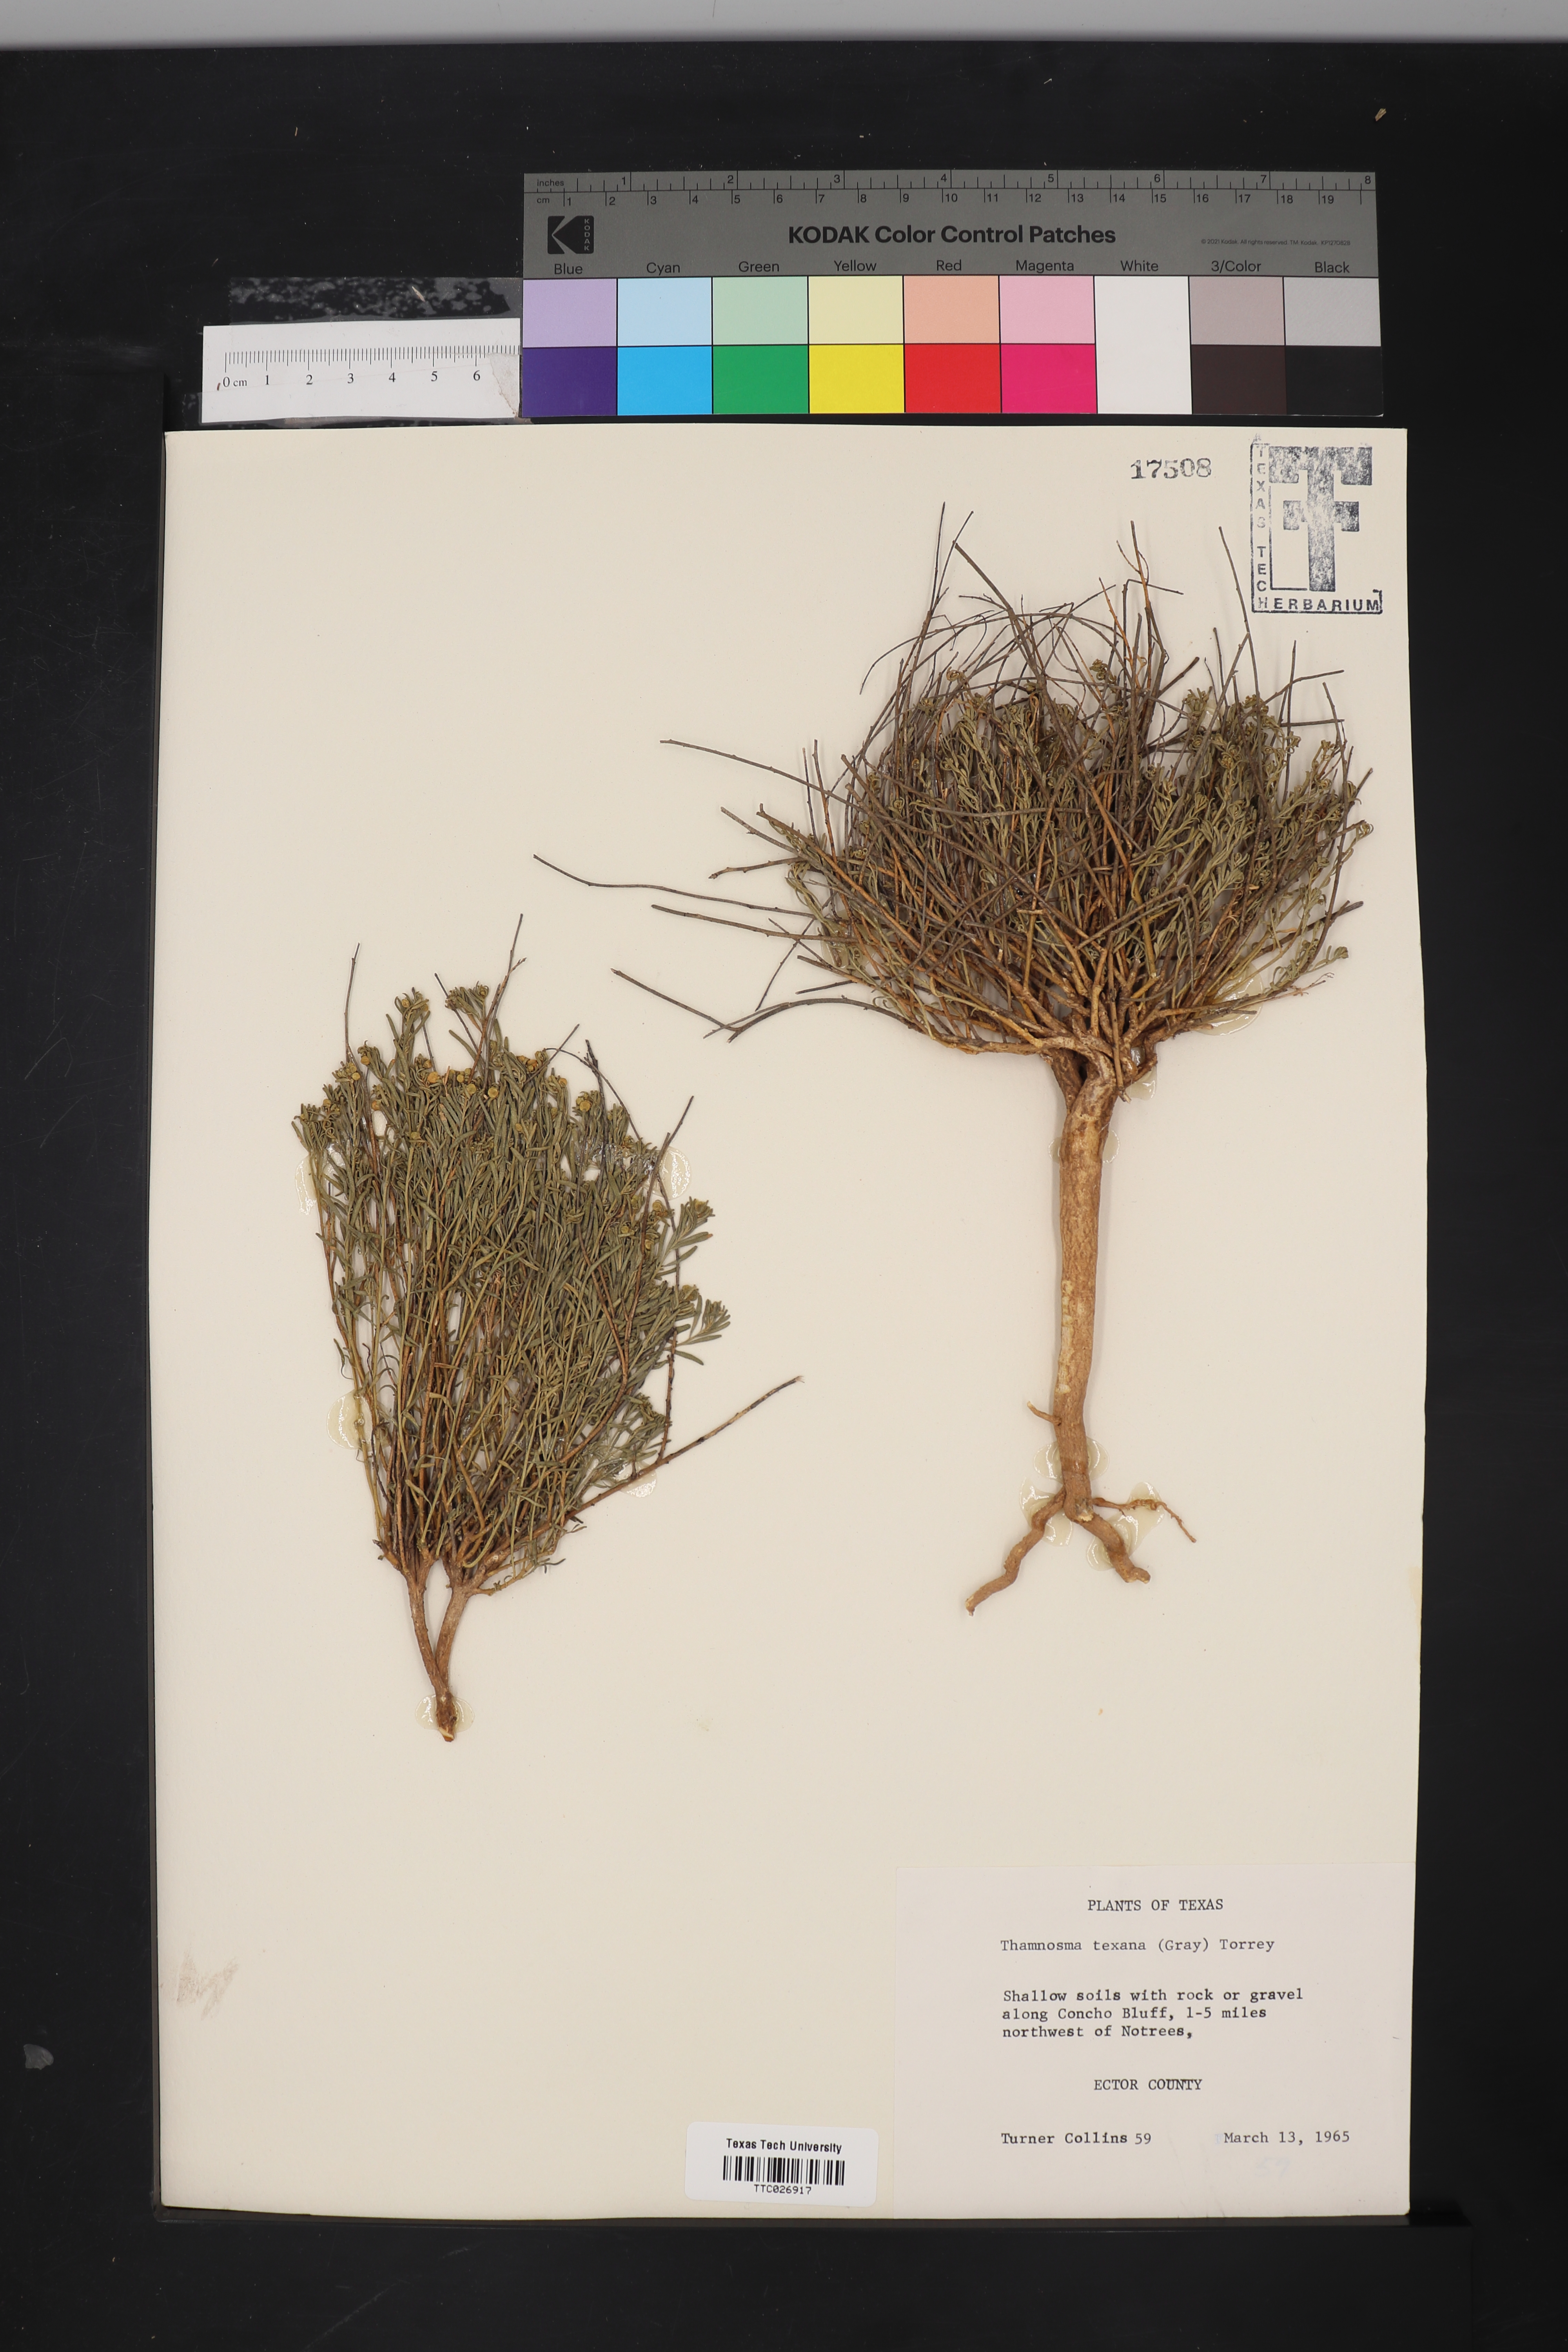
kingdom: Plantae
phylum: Tracheophyta
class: Magnoliopsida
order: Sapindales
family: Rutaceae
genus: Thamnosma
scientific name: Thamnosma texana
